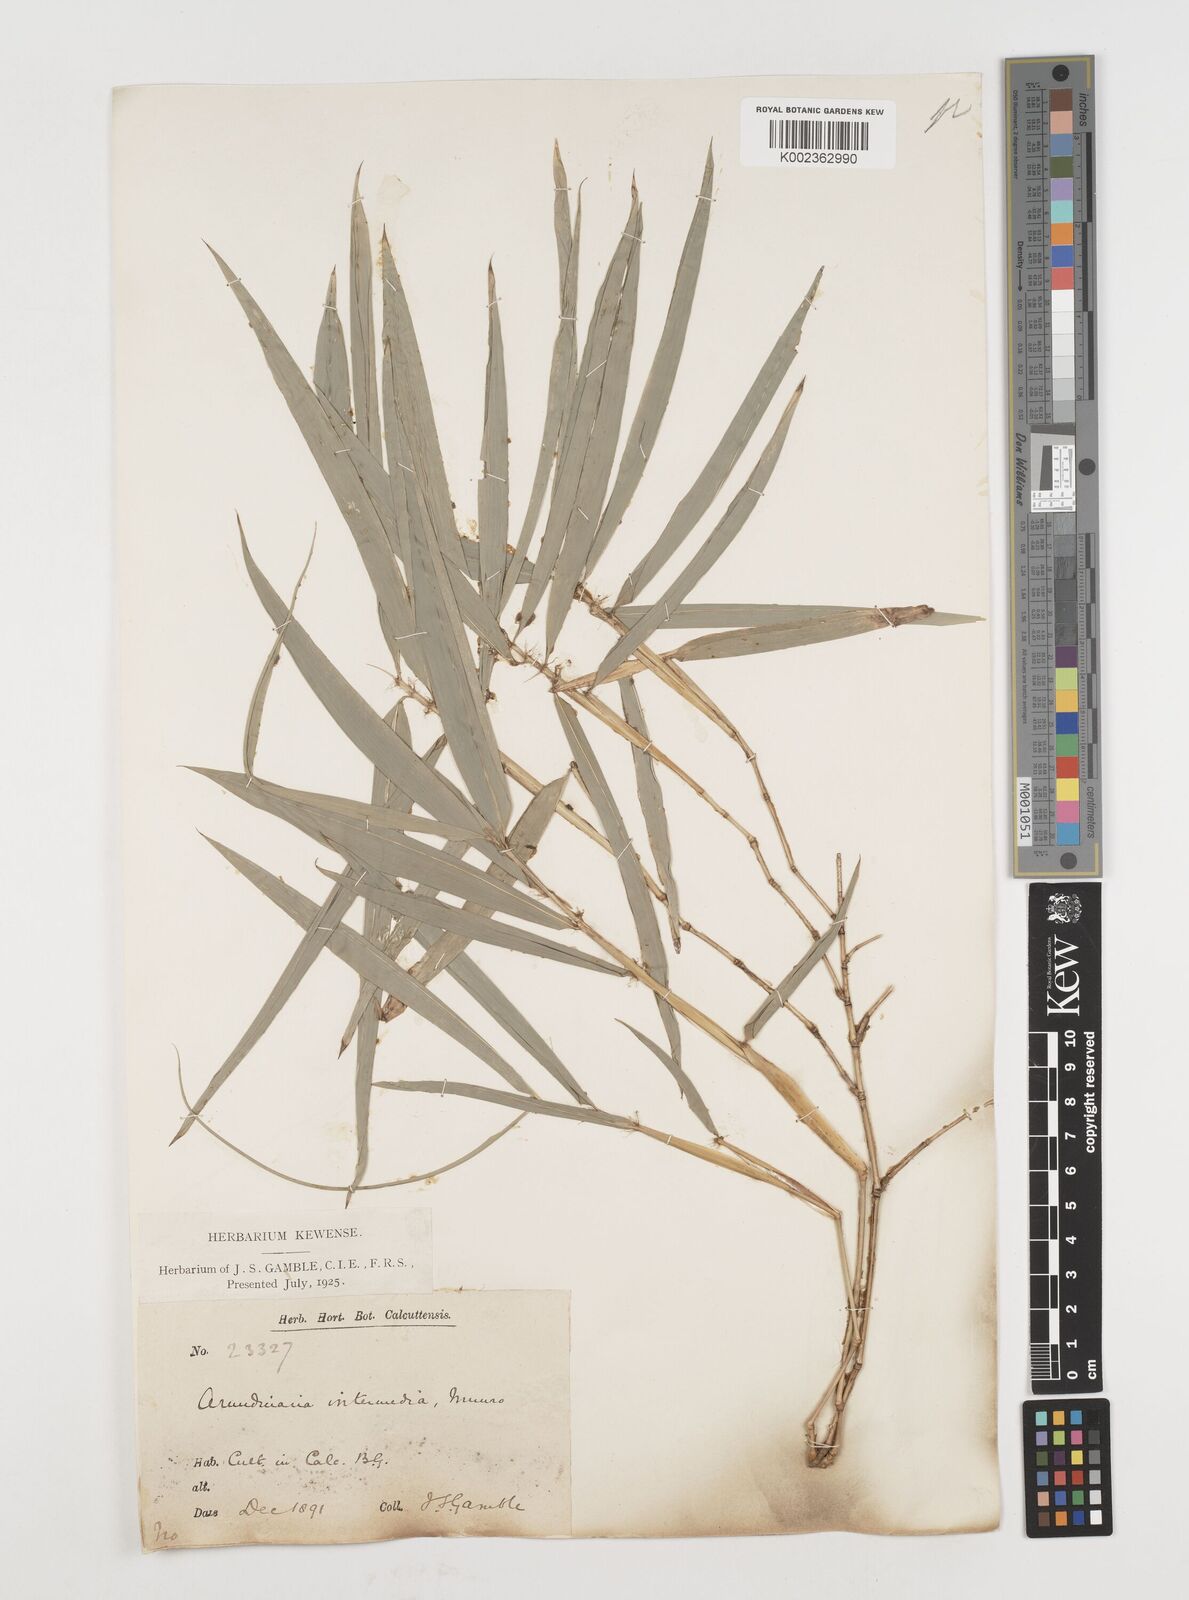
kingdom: Plantae
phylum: Tracheophyta
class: Liliopsida
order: Poales
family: Poaceae
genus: Drepanostachyum
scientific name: Drepanostachyum intermedium
